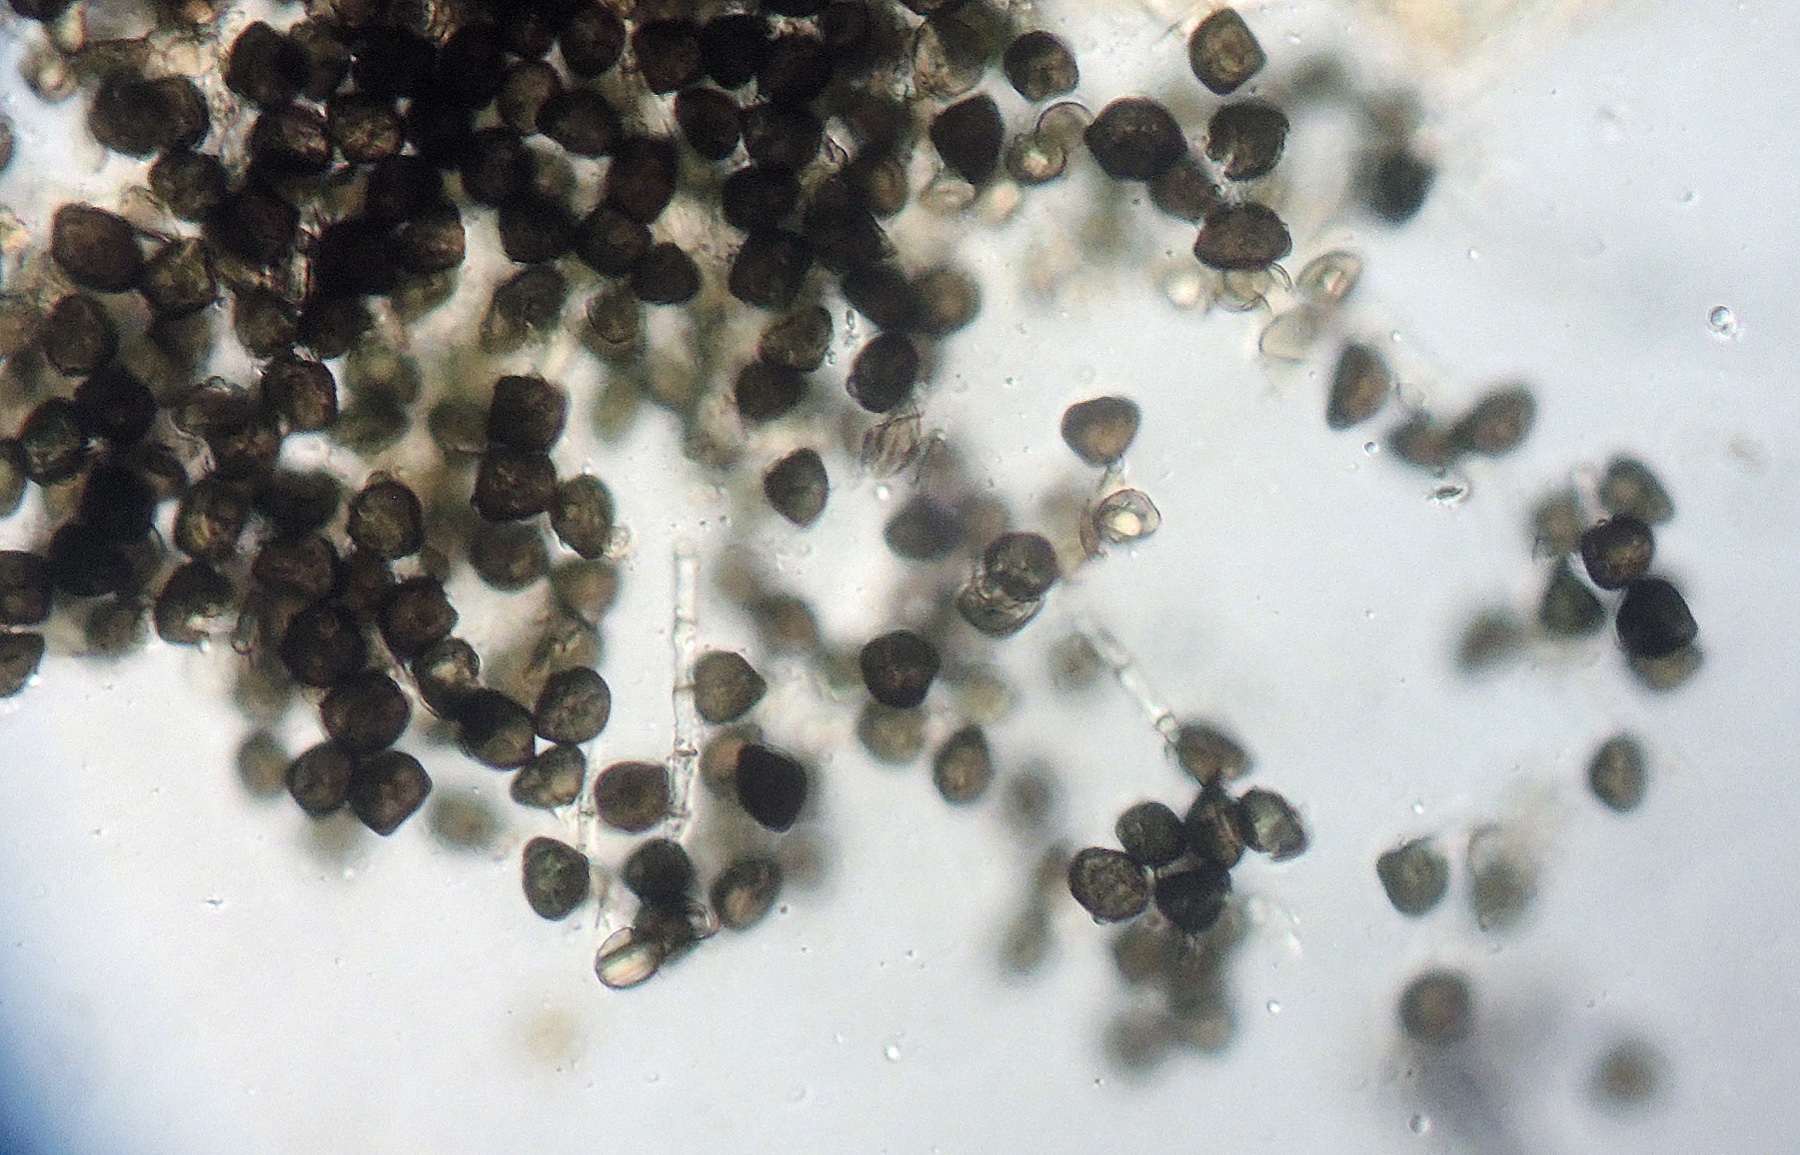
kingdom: Fungi
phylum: Ascomycota
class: Sordariomycetes
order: Xylariales
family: Apiosporaceae
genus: Arthrinium
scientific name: Arthrinium puccinioides
